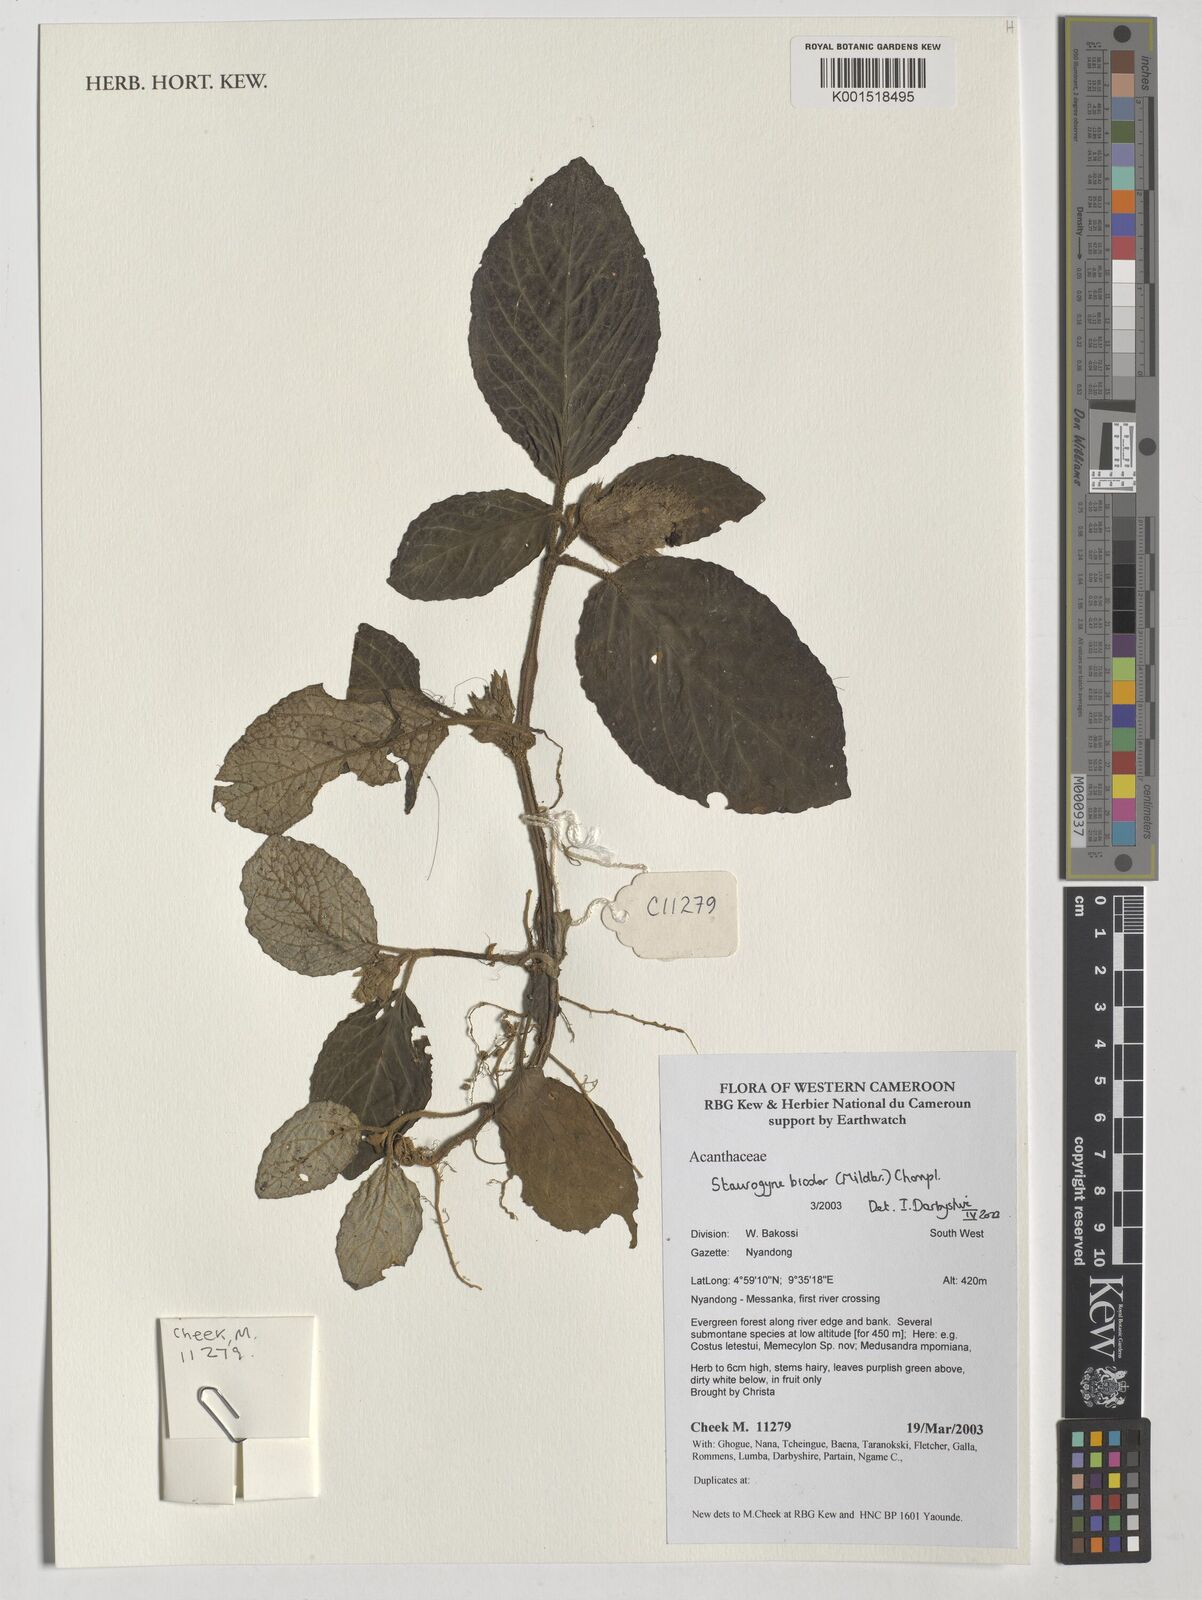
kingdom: Plantae
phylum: Tracheophyta
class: Magnoliopsida
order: Lamiales
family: Acanthaceae
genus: Staurogyne
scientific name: Staurogyne bicolor
